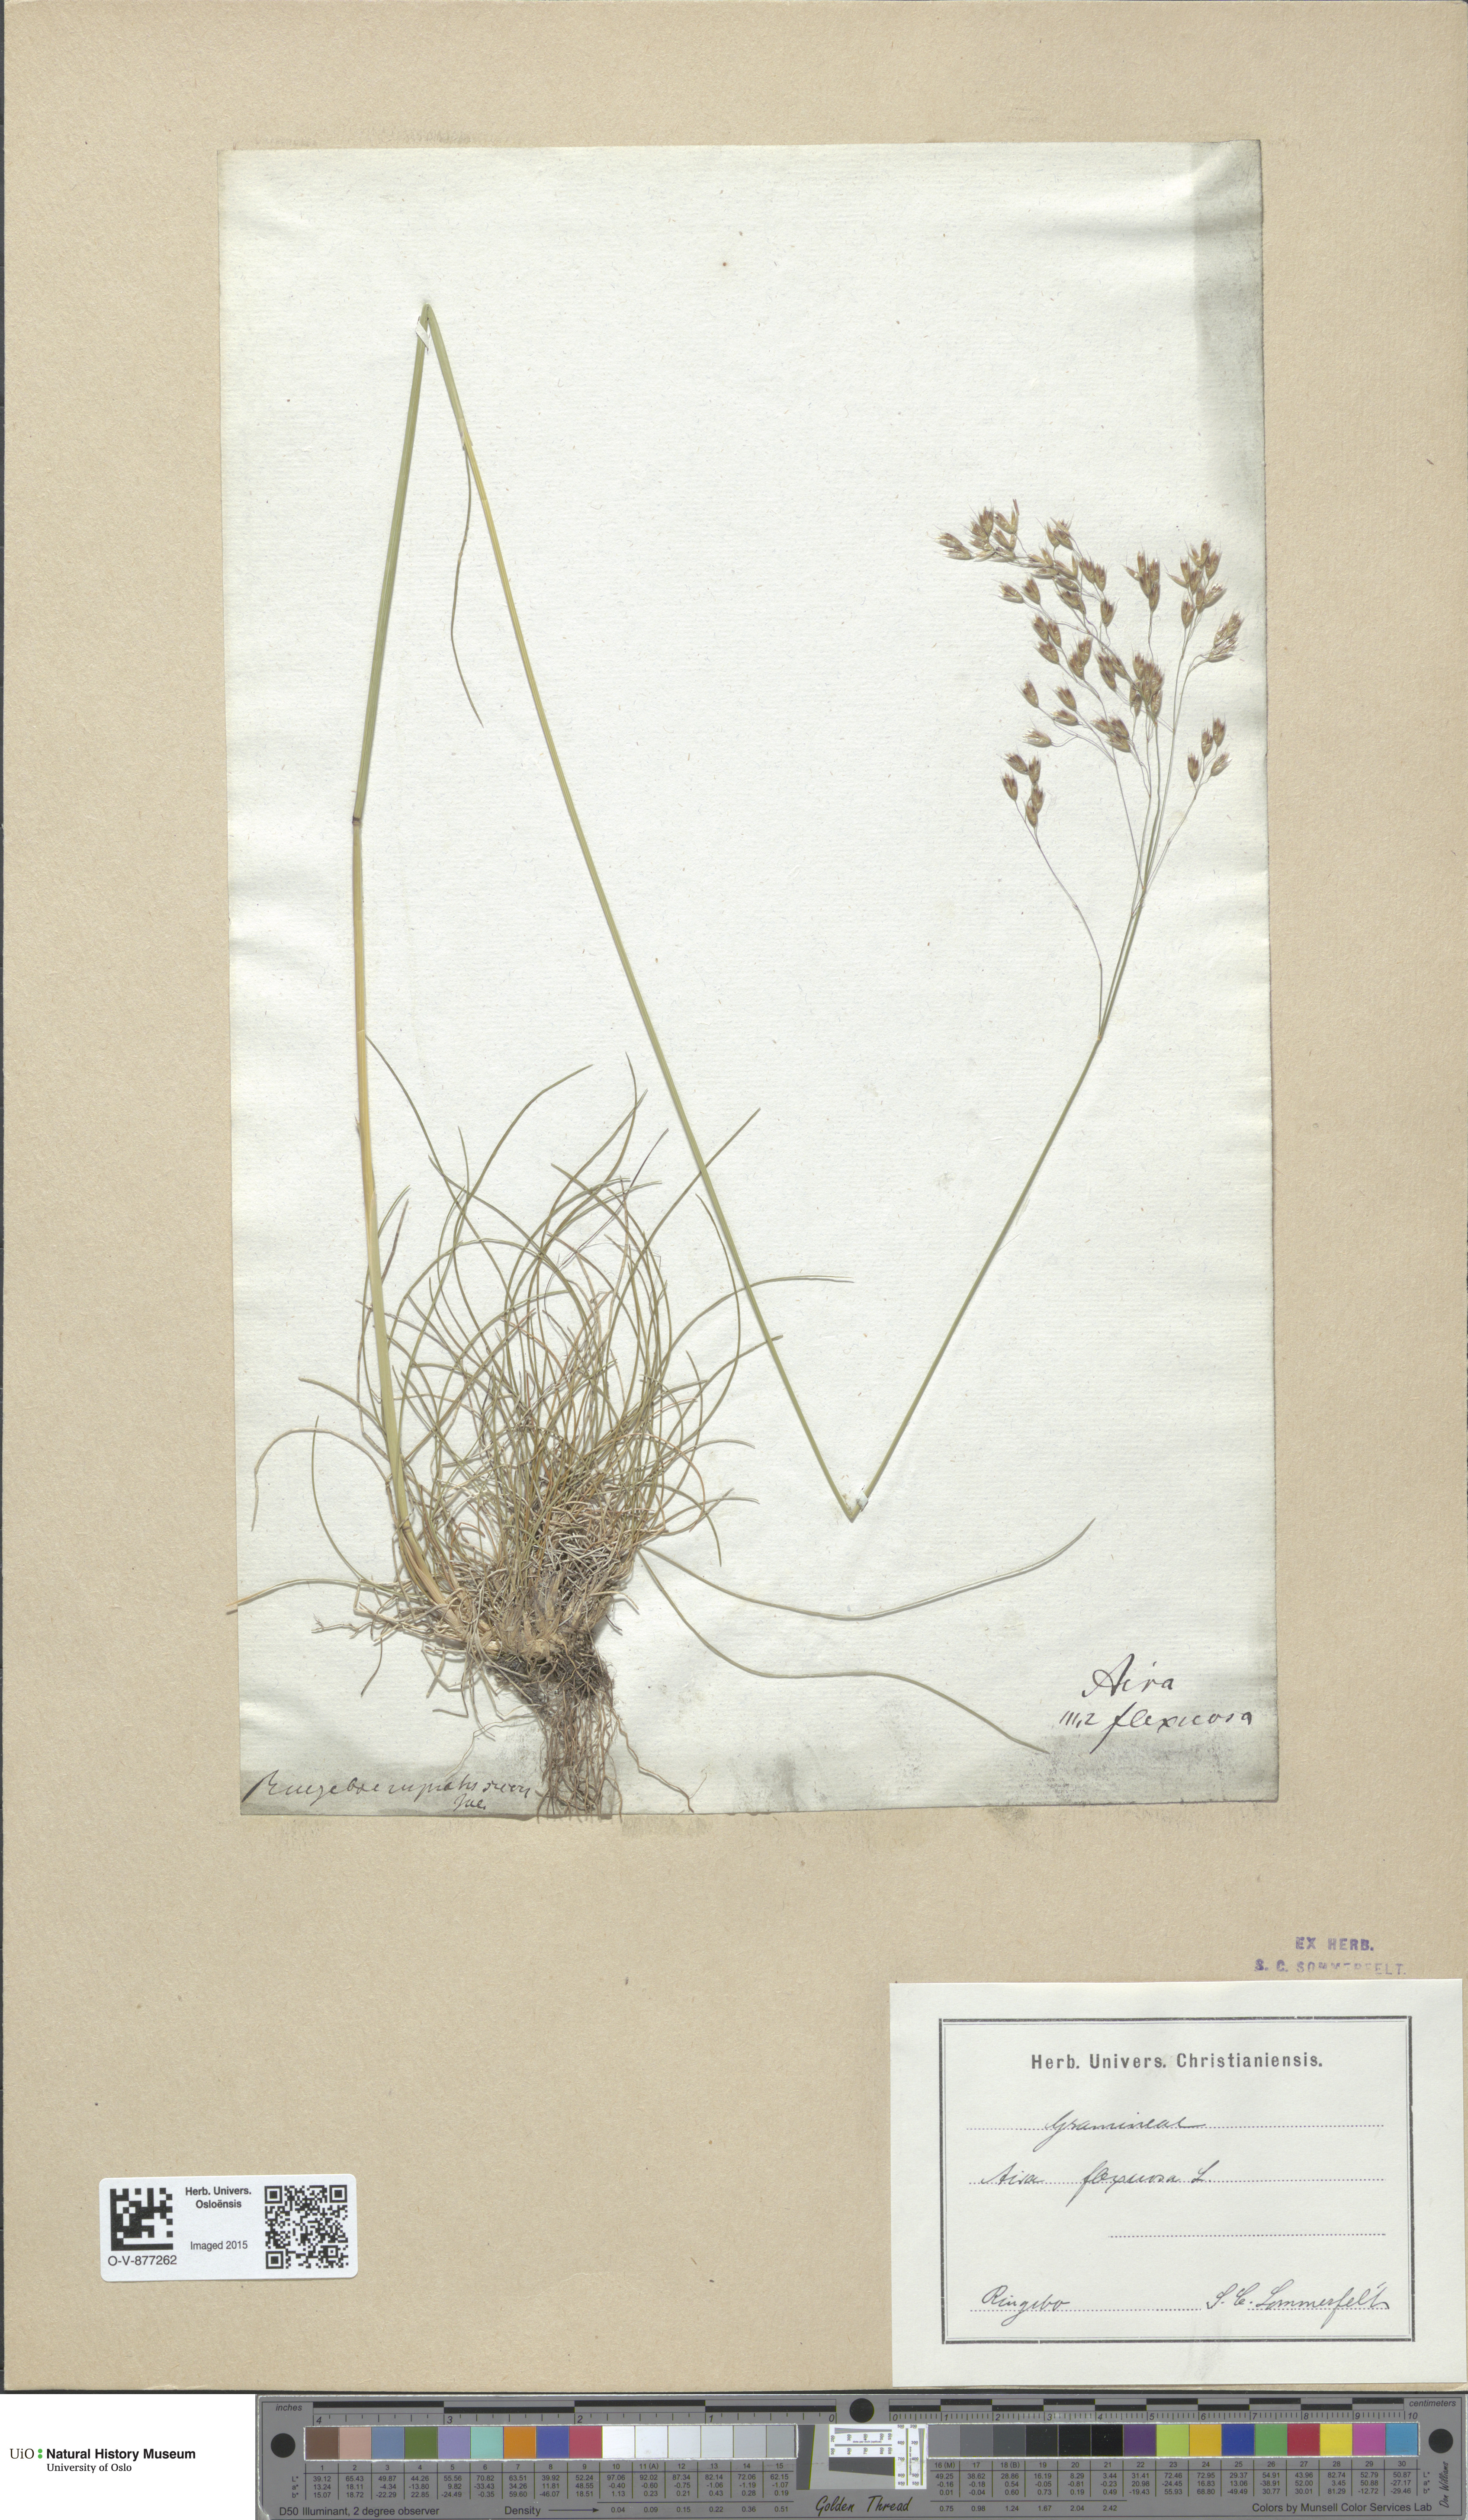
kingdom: Plantae
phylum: Tracheophyta
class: Liliopsida
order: Poales
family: Poaceae
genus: Avenella
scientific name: Avenella flexuosa
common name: Wavy hairgrass
